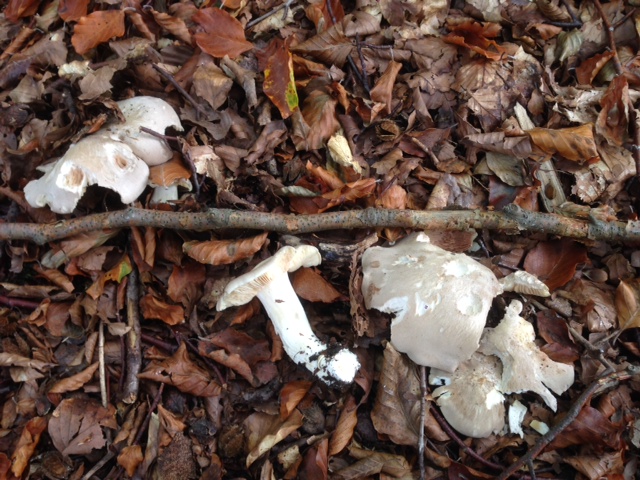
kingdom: Fungi
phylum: Basidiomycota
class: Agaricomycetes
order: Agaricales
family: Entolomataceae
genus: Entoloma
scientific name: Entoloma sinuatum
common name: giftig rødblad
